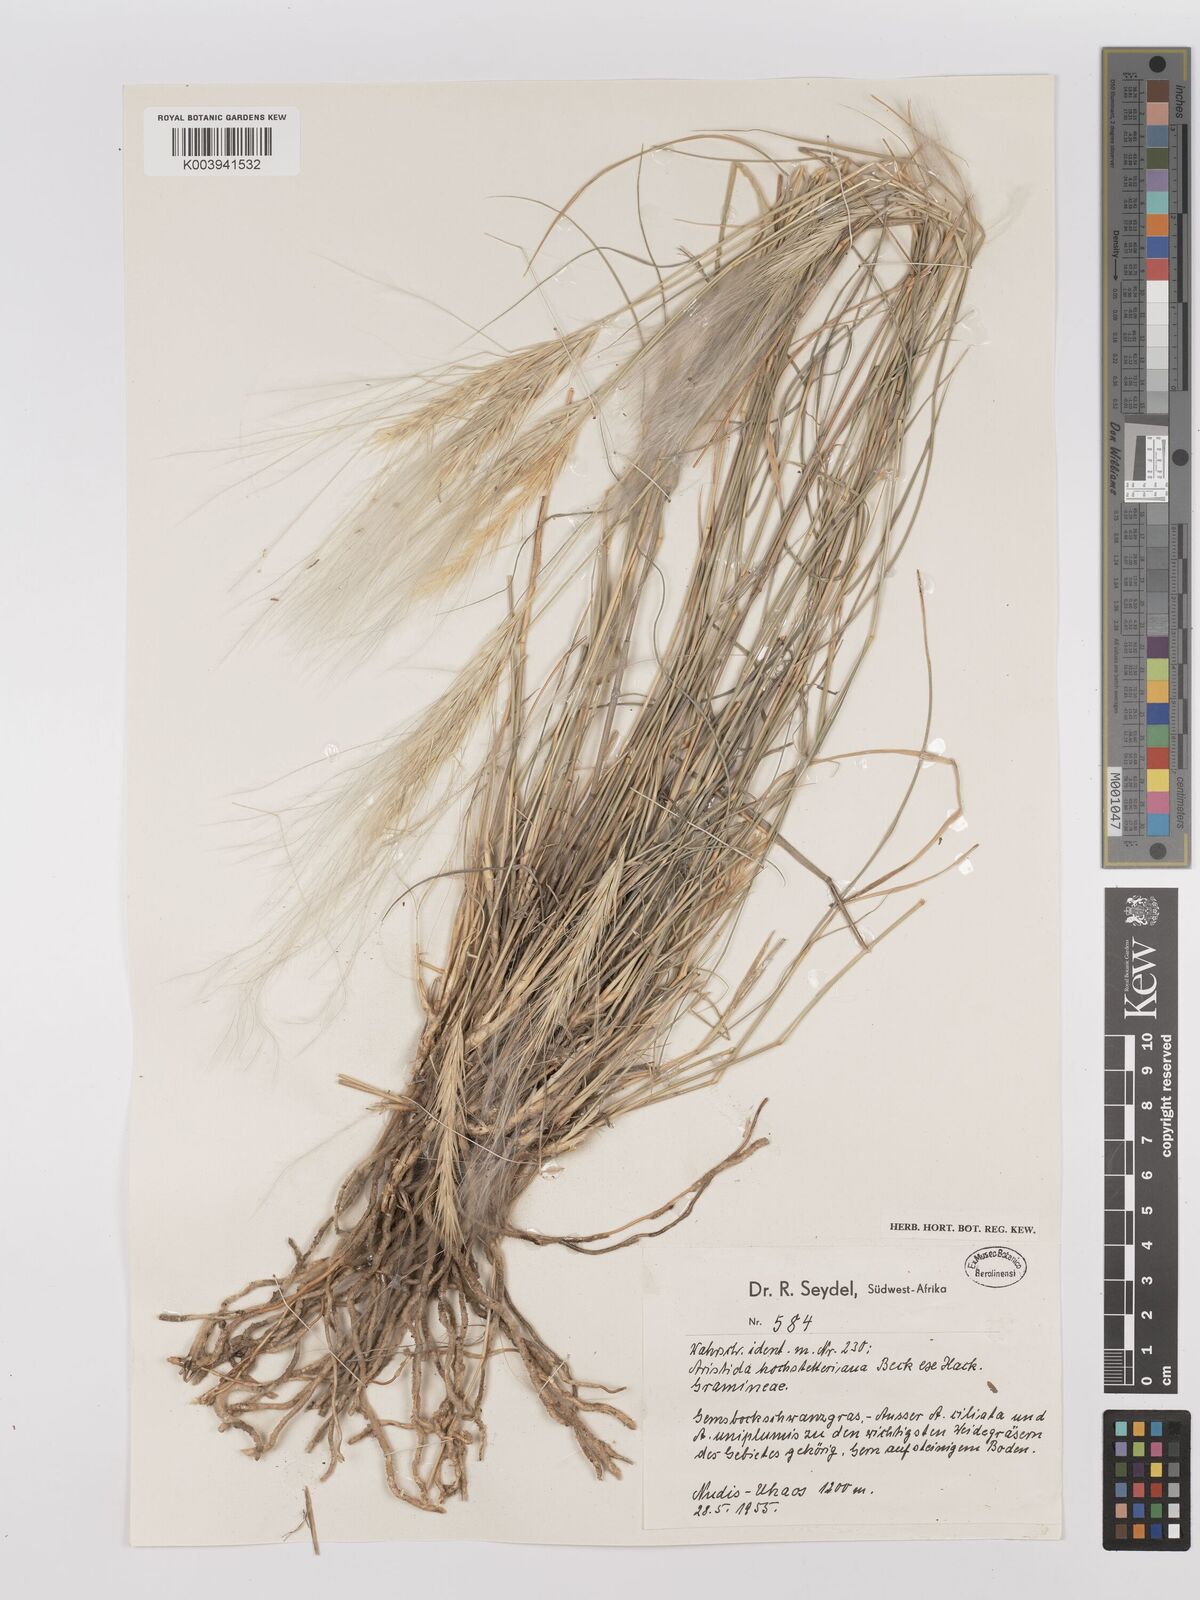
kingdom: Plantae
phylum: Tracheophyta
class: Liliopsida
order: Poales
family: Poaceae
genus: Stipagrostis
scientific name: Stipagrostis hochstetteriana
